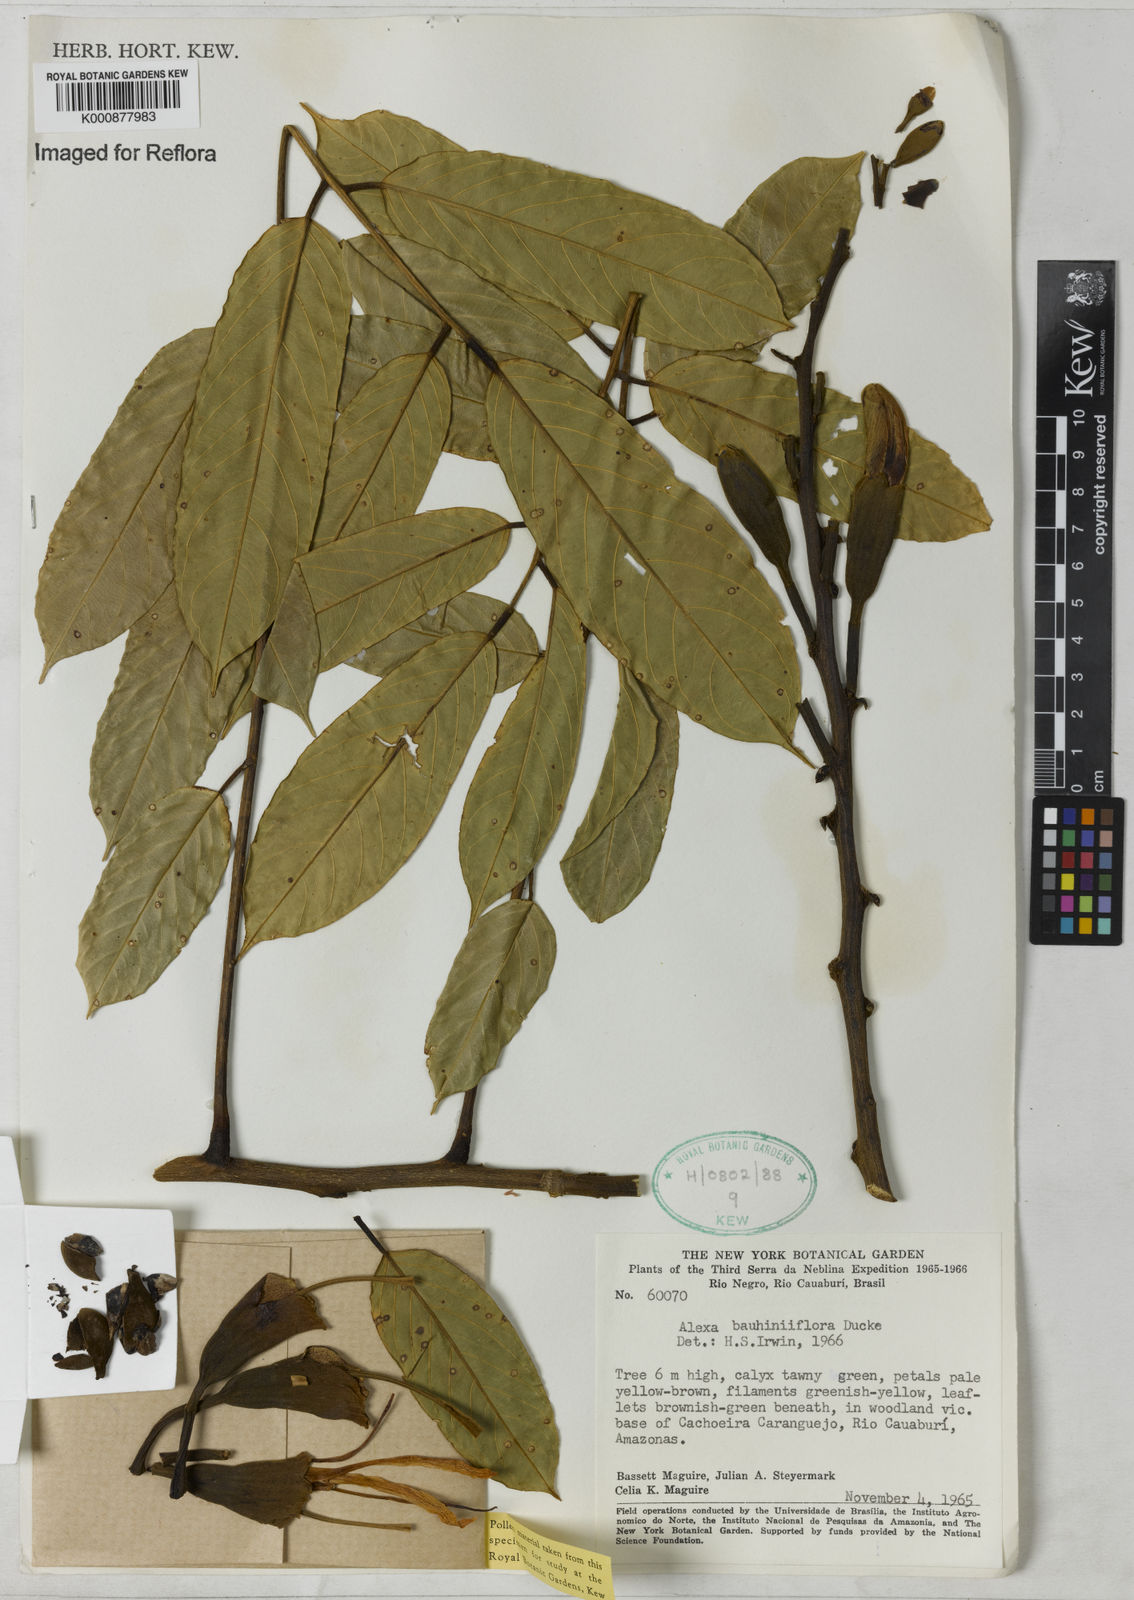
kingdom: Plantae
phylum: Tracheophyta
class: Magnoliopsida
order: Fabales
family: Fabaceae
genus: Alexa
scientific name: Alexa bauhiniiflora
